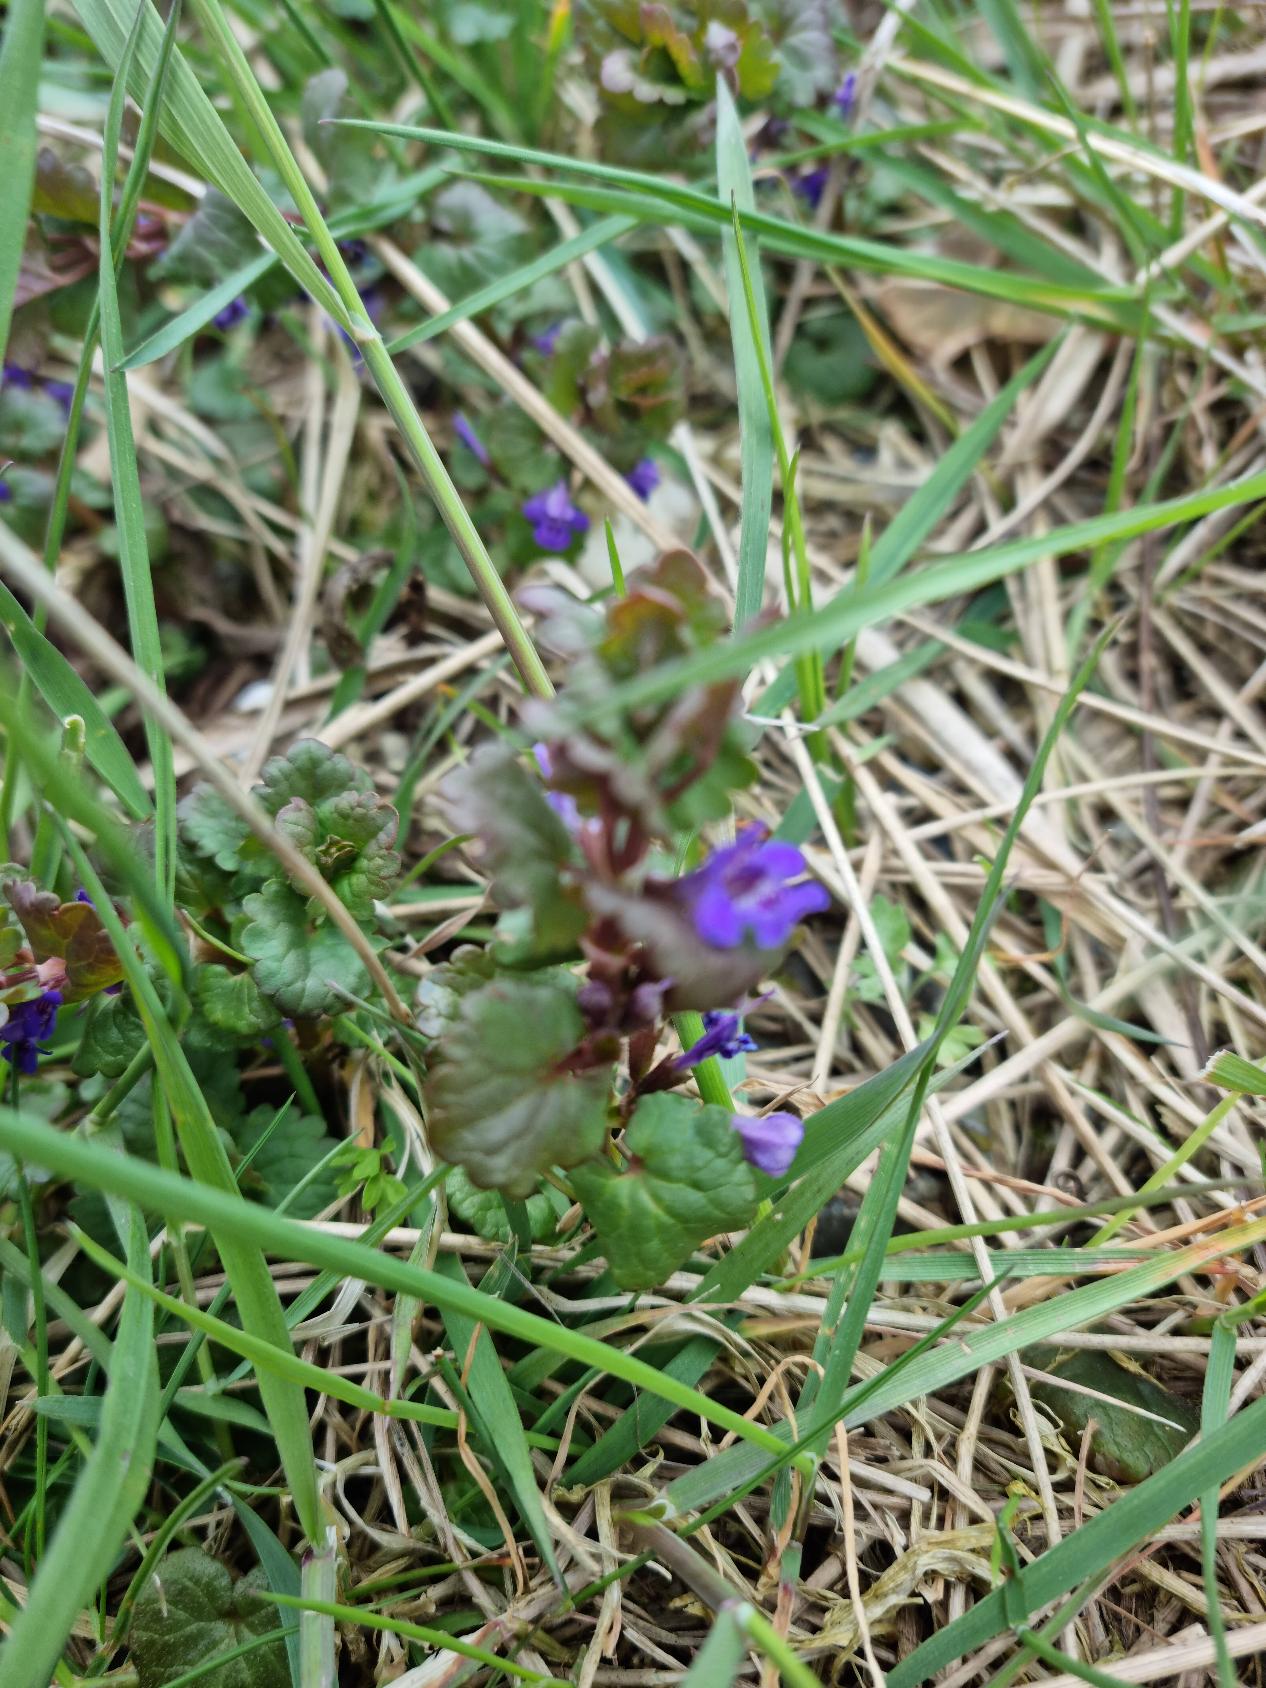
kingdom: Plantae
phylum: Tracheophyta
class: Magnoliopsida
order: Lamiales
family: Lamiaceae
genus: Glechoma
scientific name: Glechoma hederacea
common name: Korsknap
